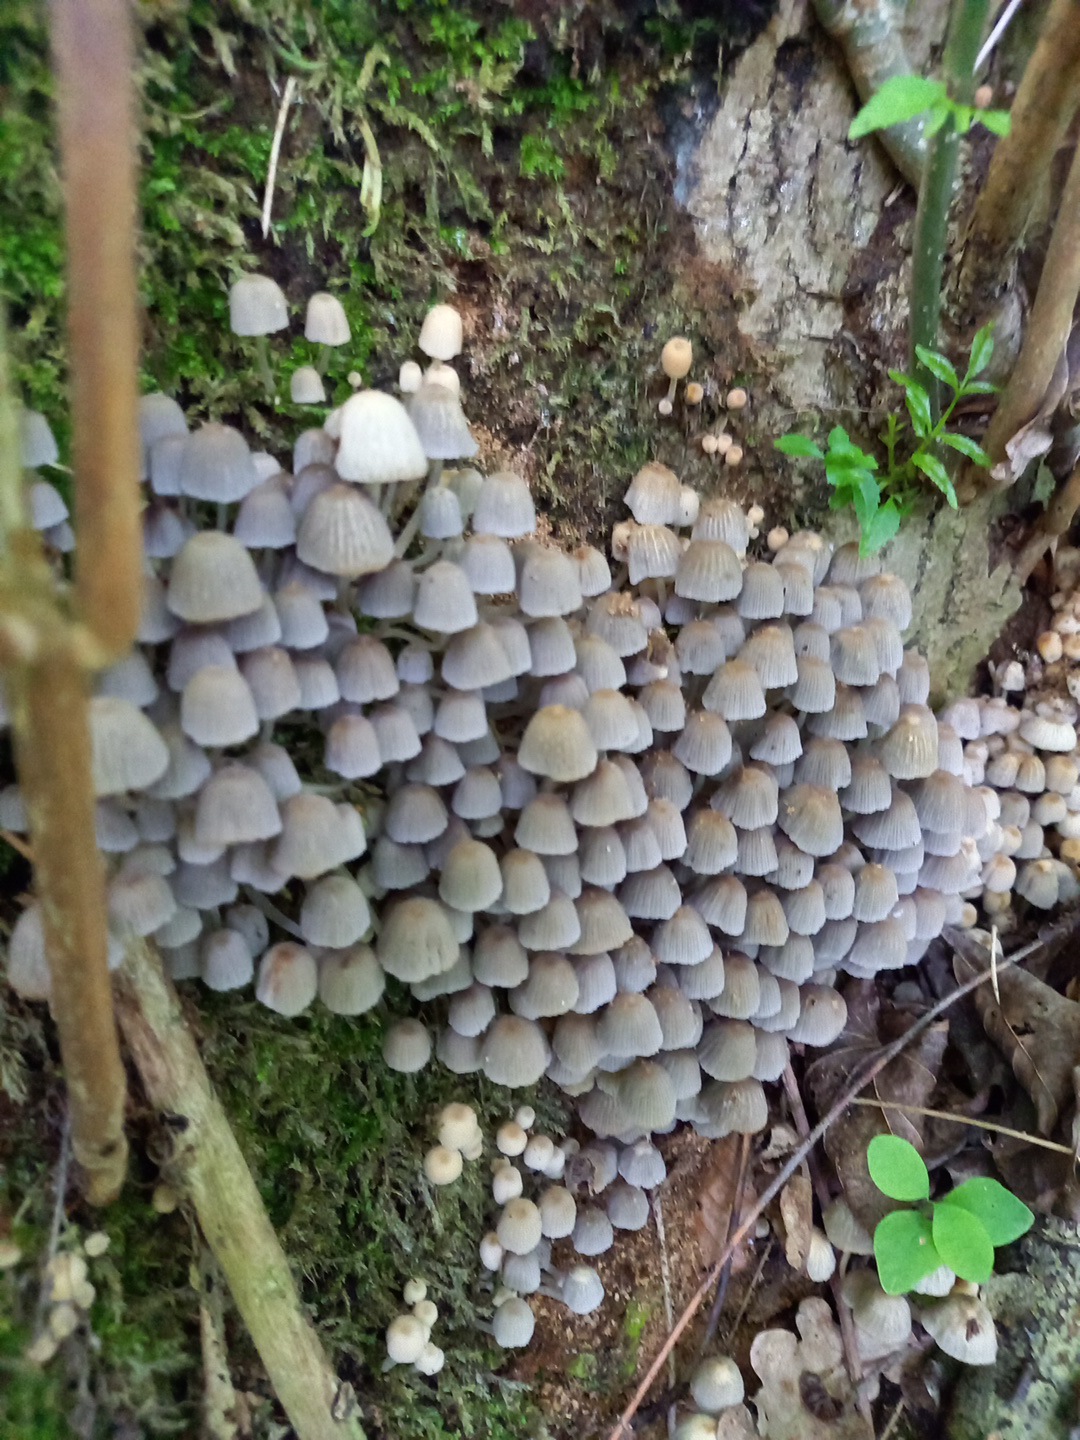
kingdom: Fungi
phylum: Basidiomycota
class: Agaricomycetes
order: Agaricales
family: Psathyrellaceae
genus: Coprinellus
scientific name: Coprinellus disseminatus
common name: bredsået blækhat
